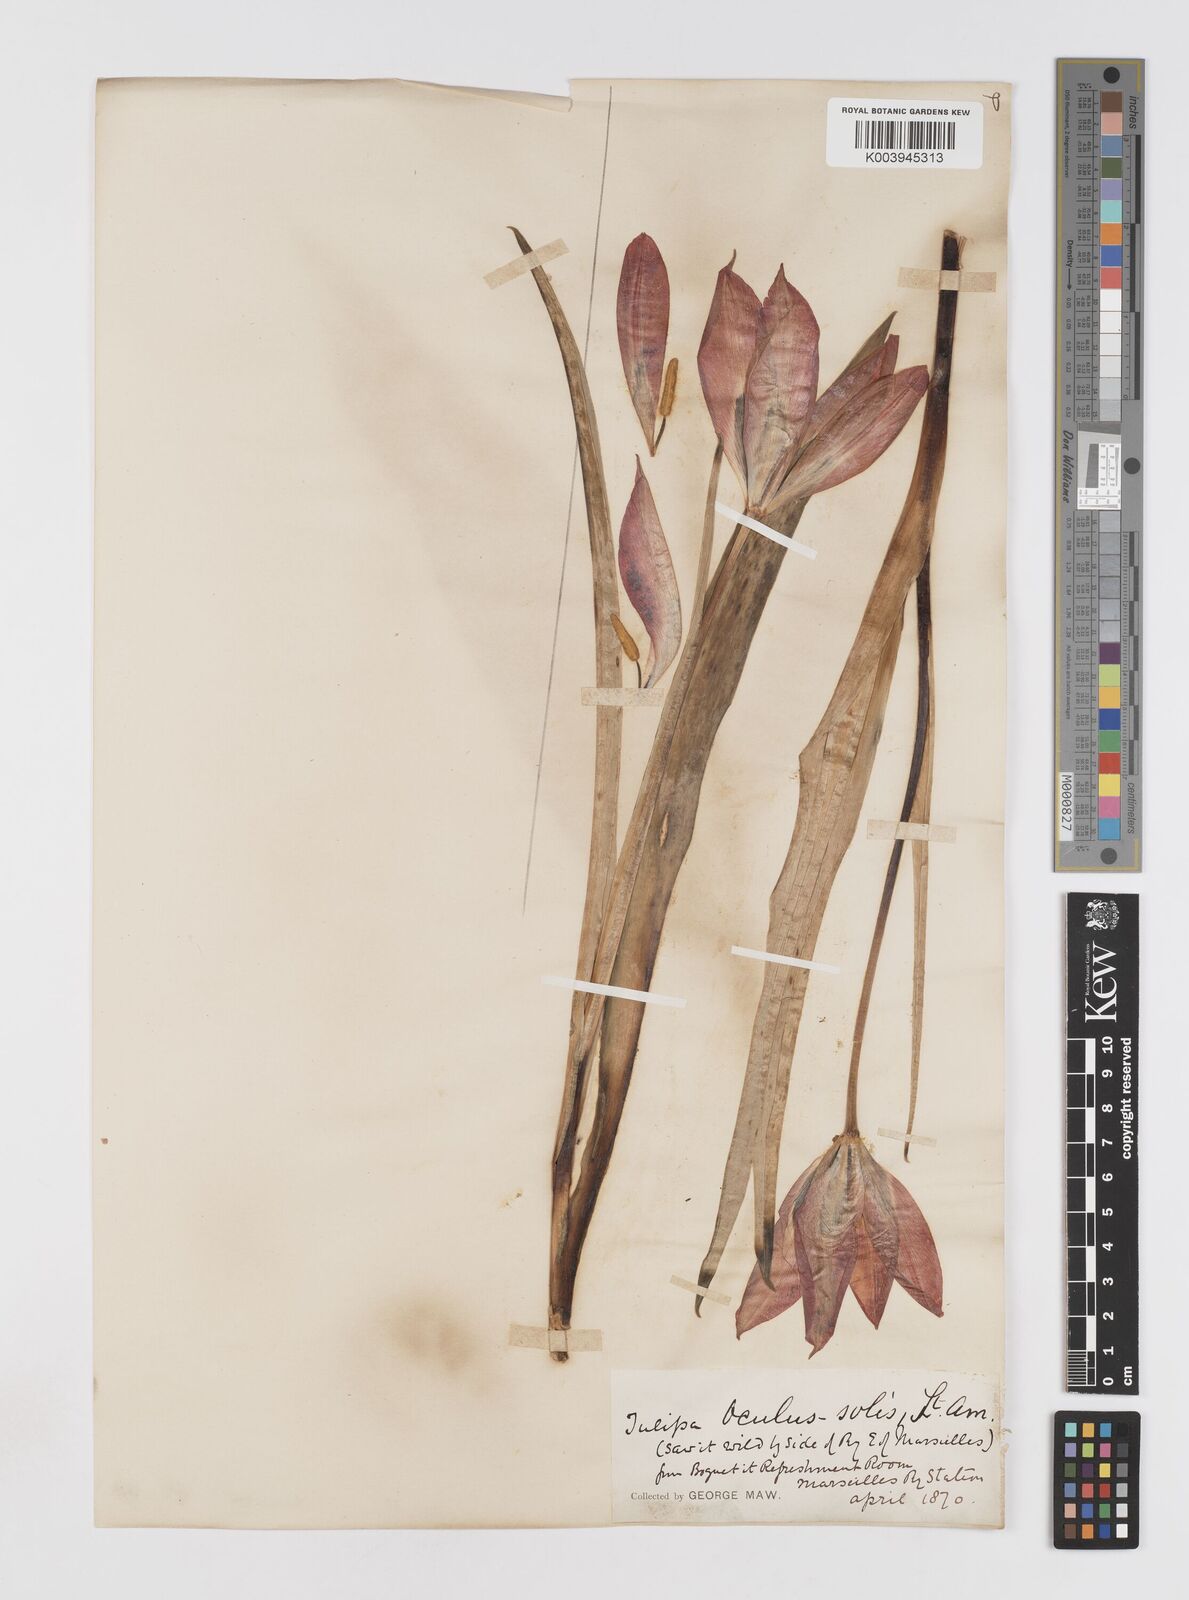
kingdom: Plantae
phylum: Tracheophyta
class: Liliopsida
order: Liliales
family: Liliaceae
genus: Tulipa
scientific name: Tulipa agenensis
